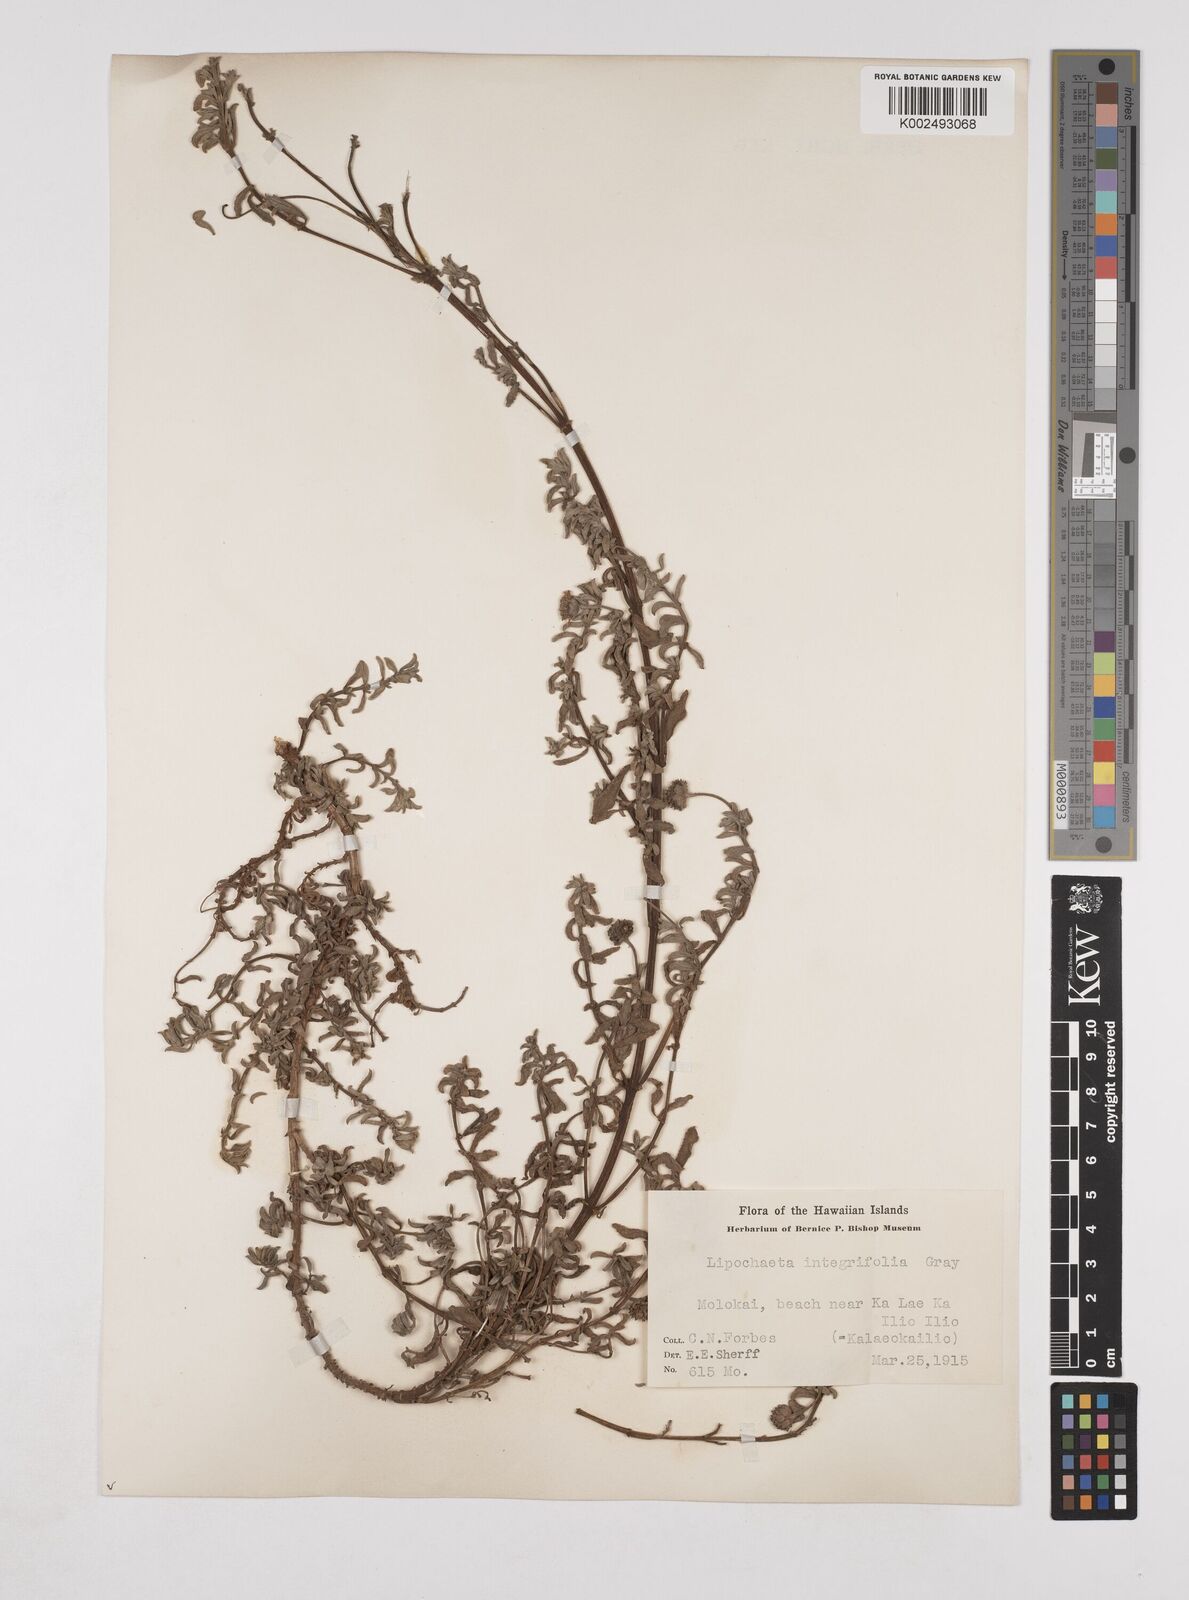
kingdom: Plantae
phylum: Tracheophyta
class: Magnoliopsida
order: Asterales
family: Asteraceae
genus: Lipochaeta
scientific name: Lipochaeta integrifolia
